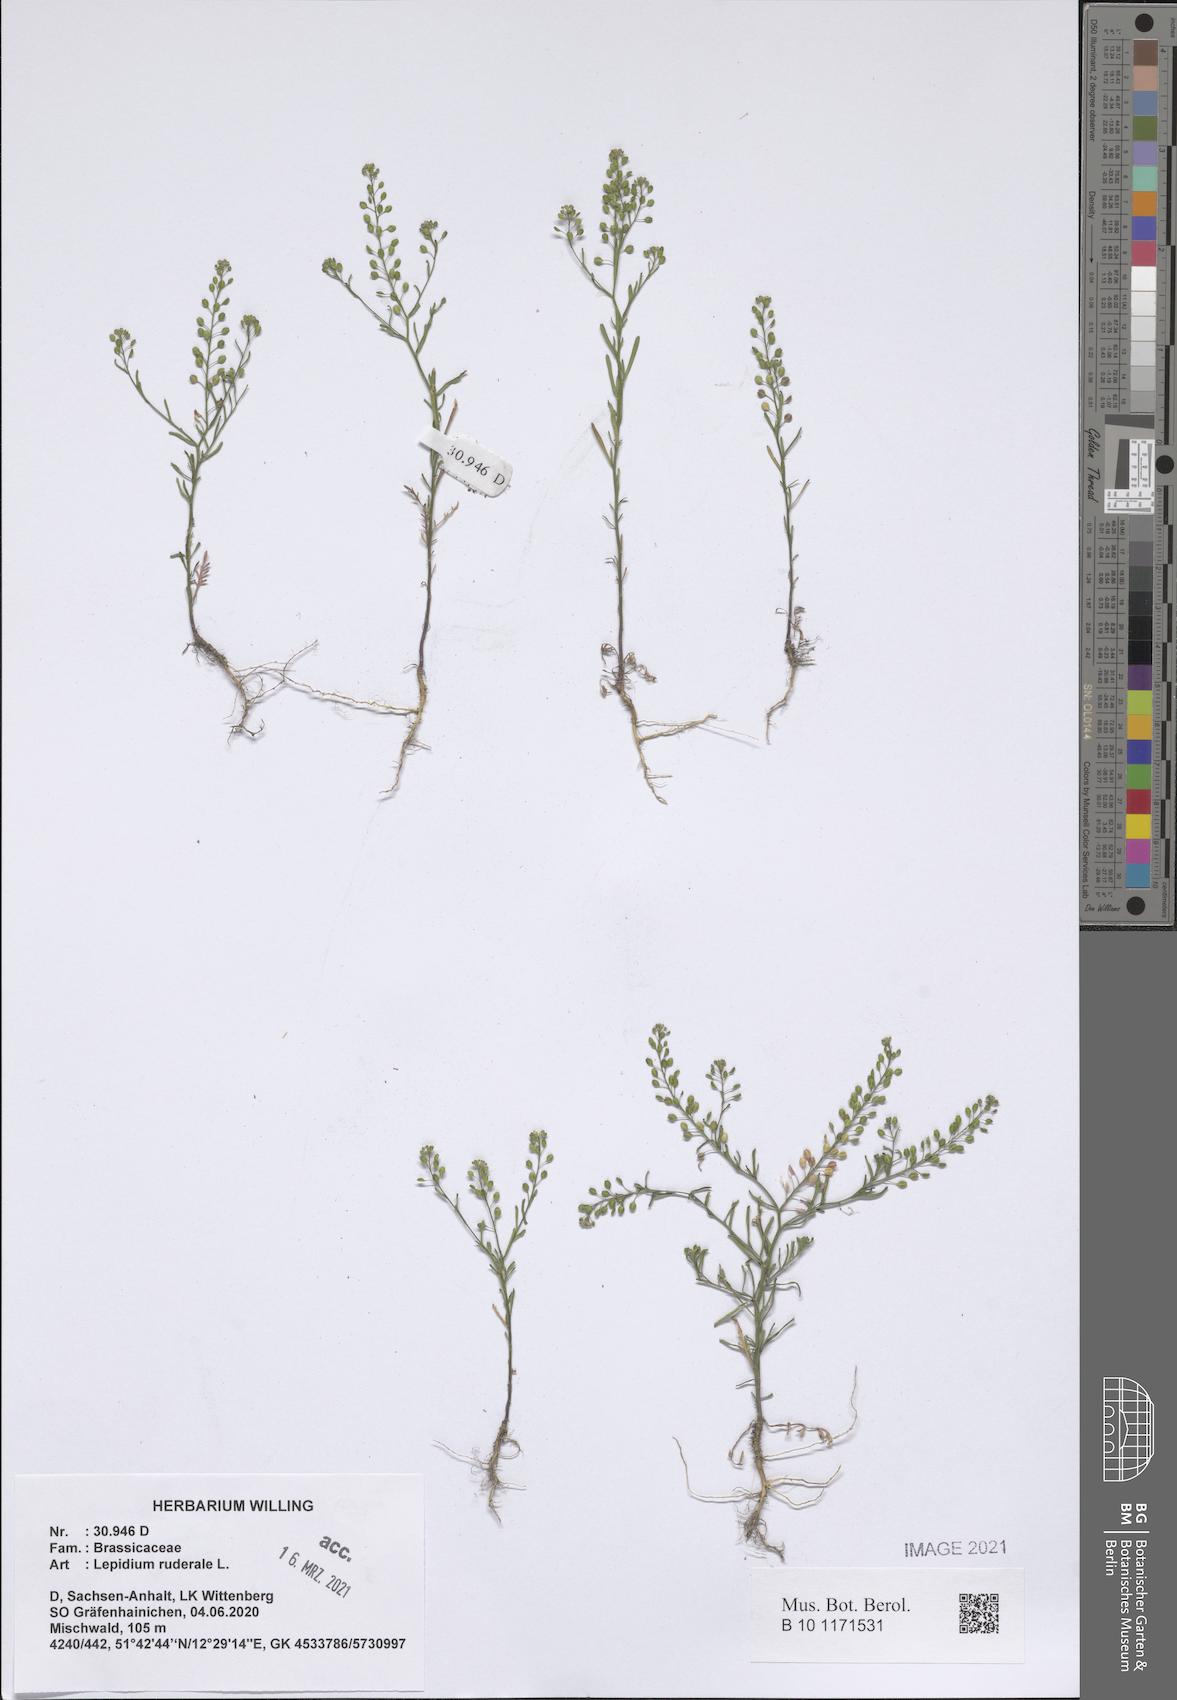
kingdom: Plantae
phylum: Tracheophyta
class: Magnoliopsida
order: Brassicales
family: Brassicaceae
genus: Lepidium
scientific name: Lepidium ruderale
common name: Narrow-leaved pepperwort
